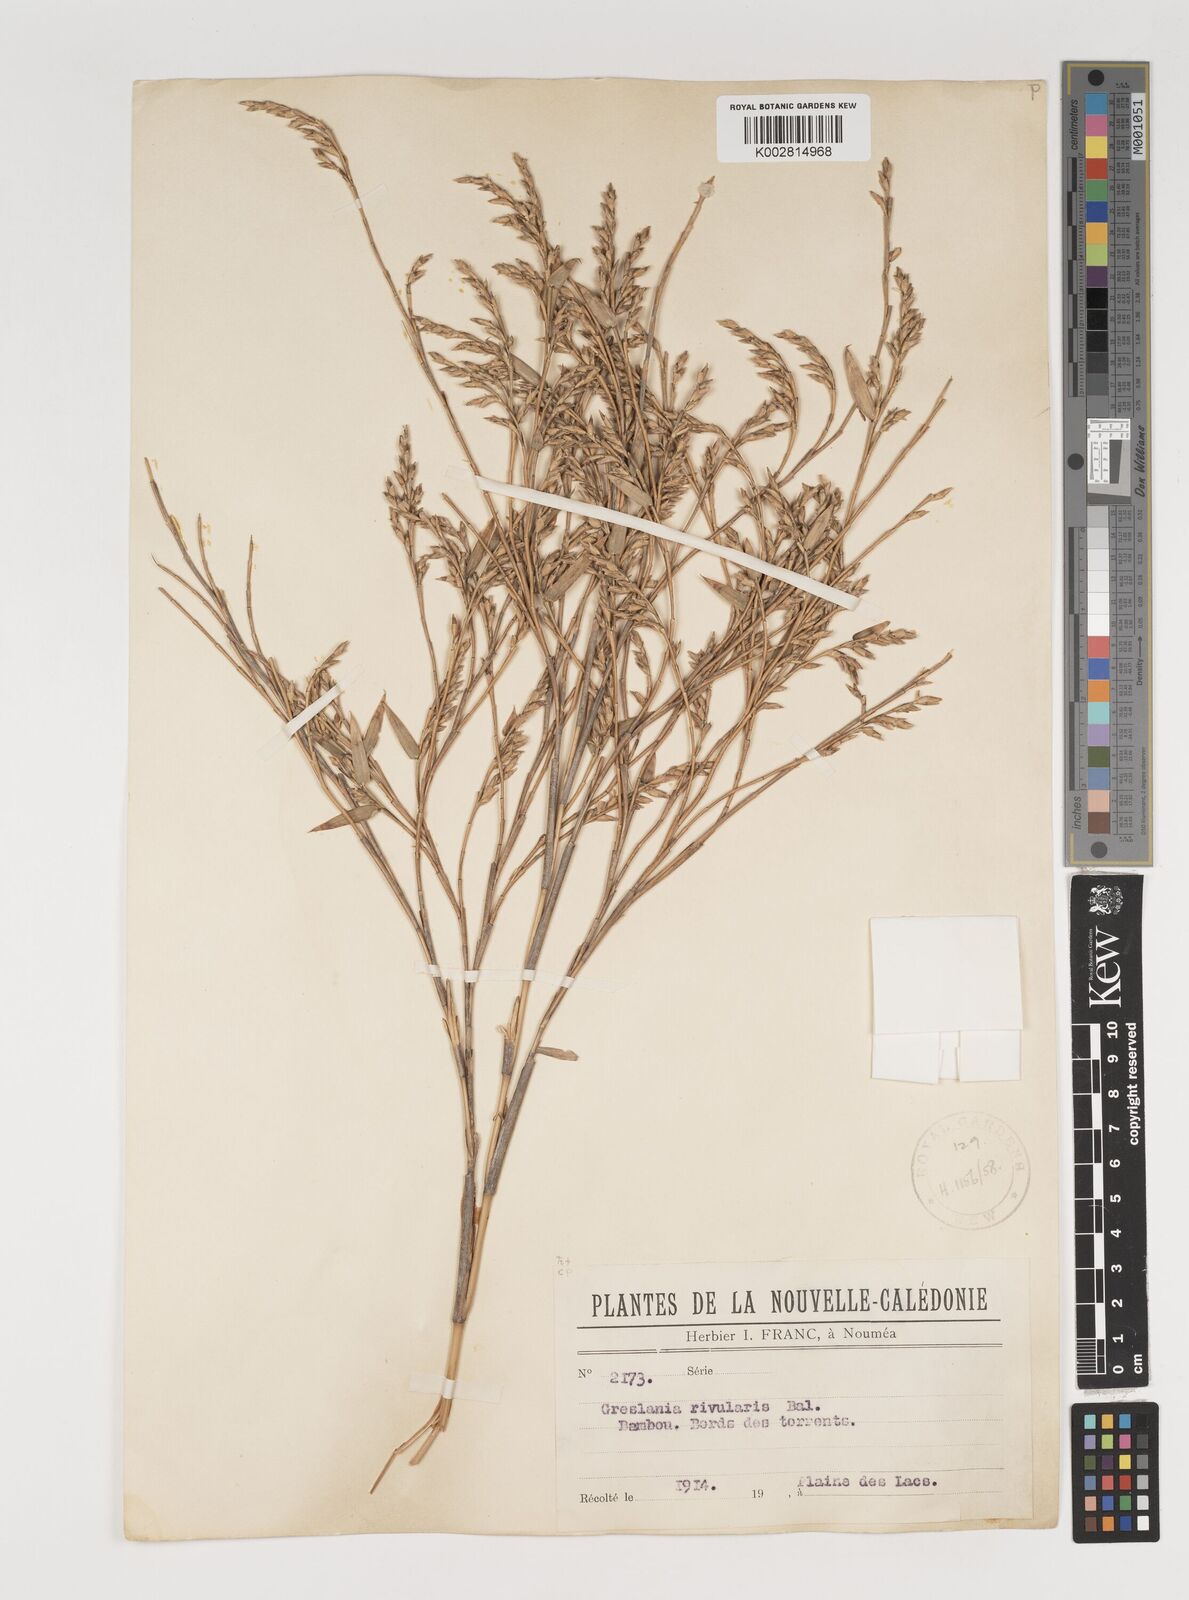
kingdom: Plantae
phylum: Tracheophyta
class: Liliopsida
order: Poales
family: Poaceae
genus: Greslania
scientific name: Greslania rivularis
